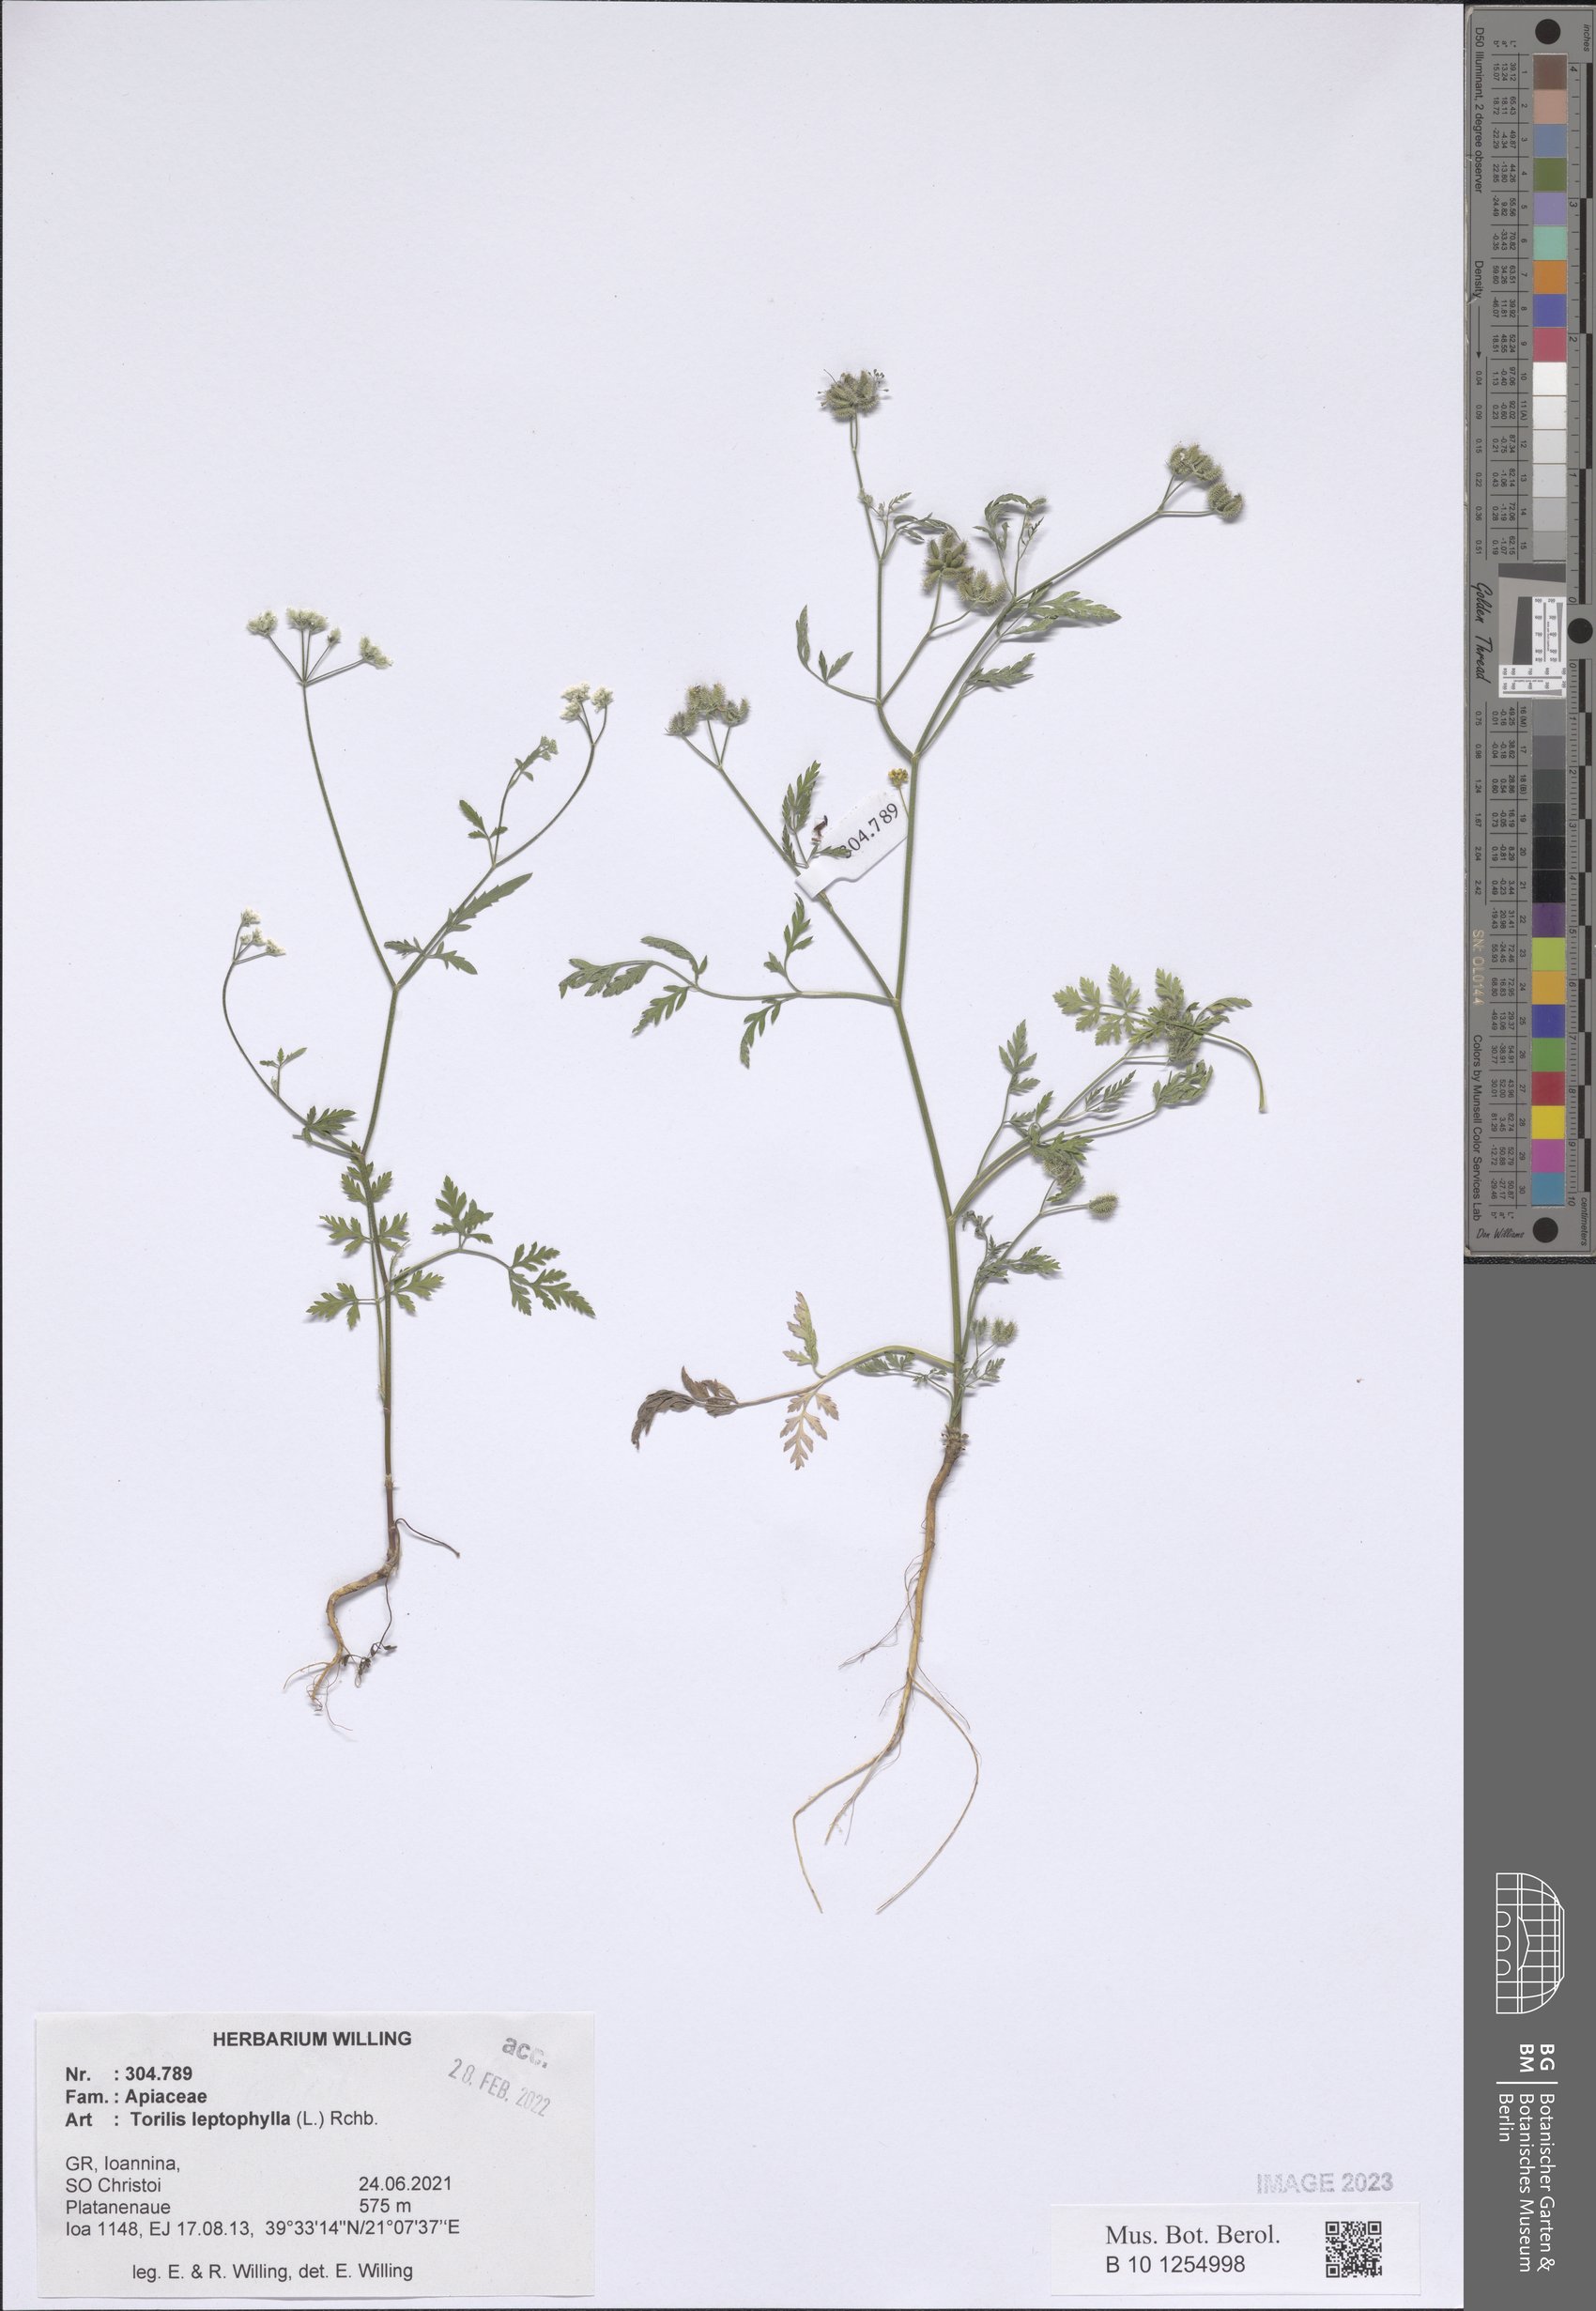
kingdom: Plantae
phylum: Tracheophyta
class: Magnoliopsida
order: Apiales
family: Apiaceae
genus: Torilis
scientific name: Torilis leptophylla
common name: Bristlefruit hedgeparsley
